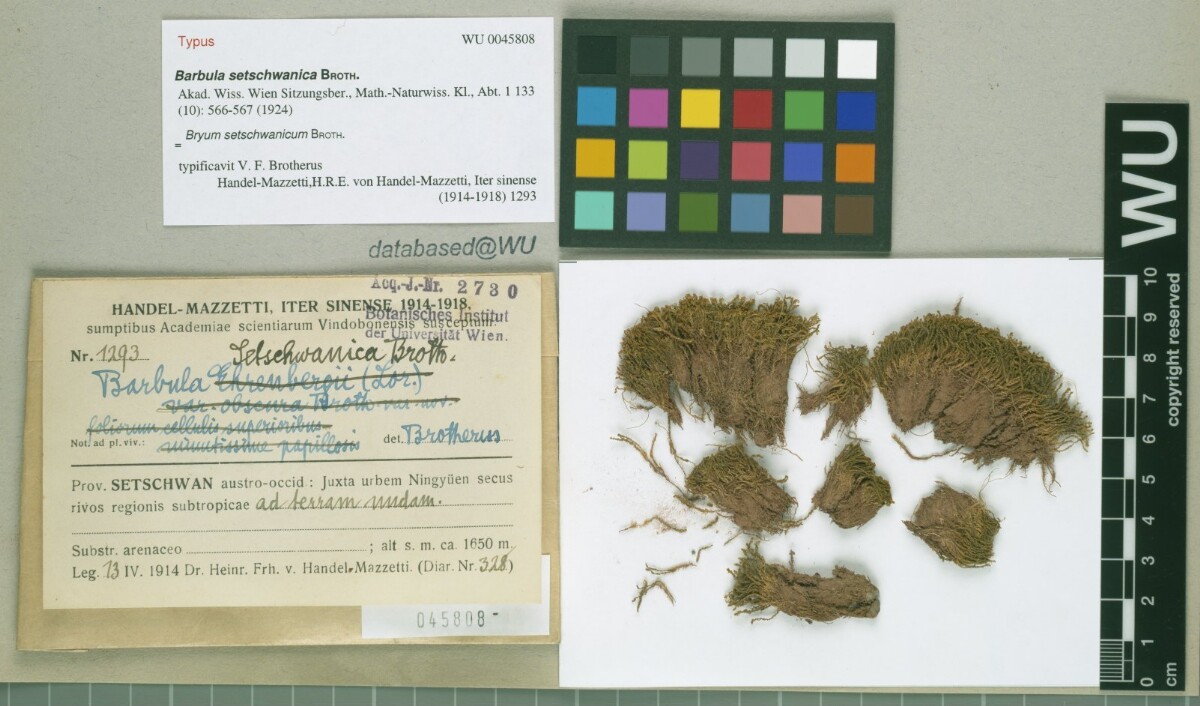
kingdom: Plantae
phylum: Bryophyta
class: Bryopsida
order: Pottiales
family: Pottiaceae
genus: Hydrogonium
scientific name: Hydrogonium orientale
